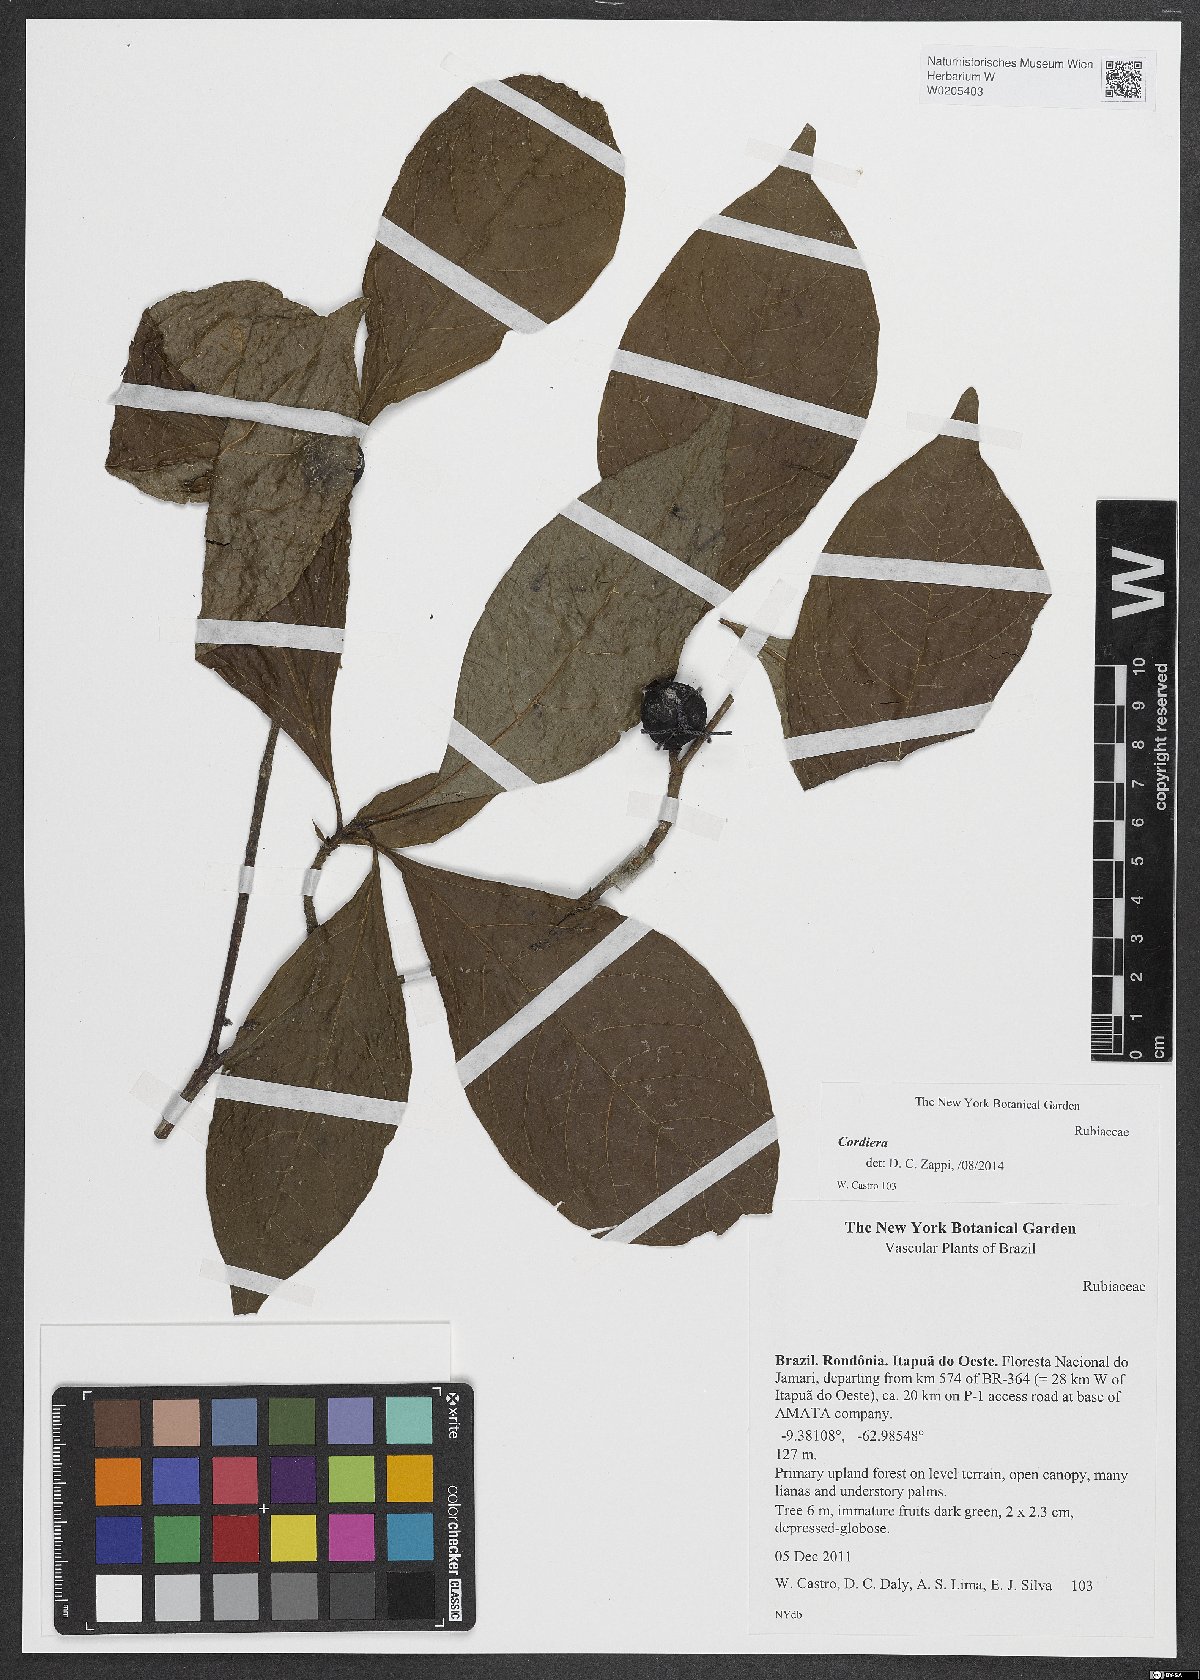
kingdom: Plantae
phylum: Tracheophyta
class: Magnoliopsida
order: Gentianales
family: Rubiaceae
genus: Cordiera
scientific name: Cordiera
